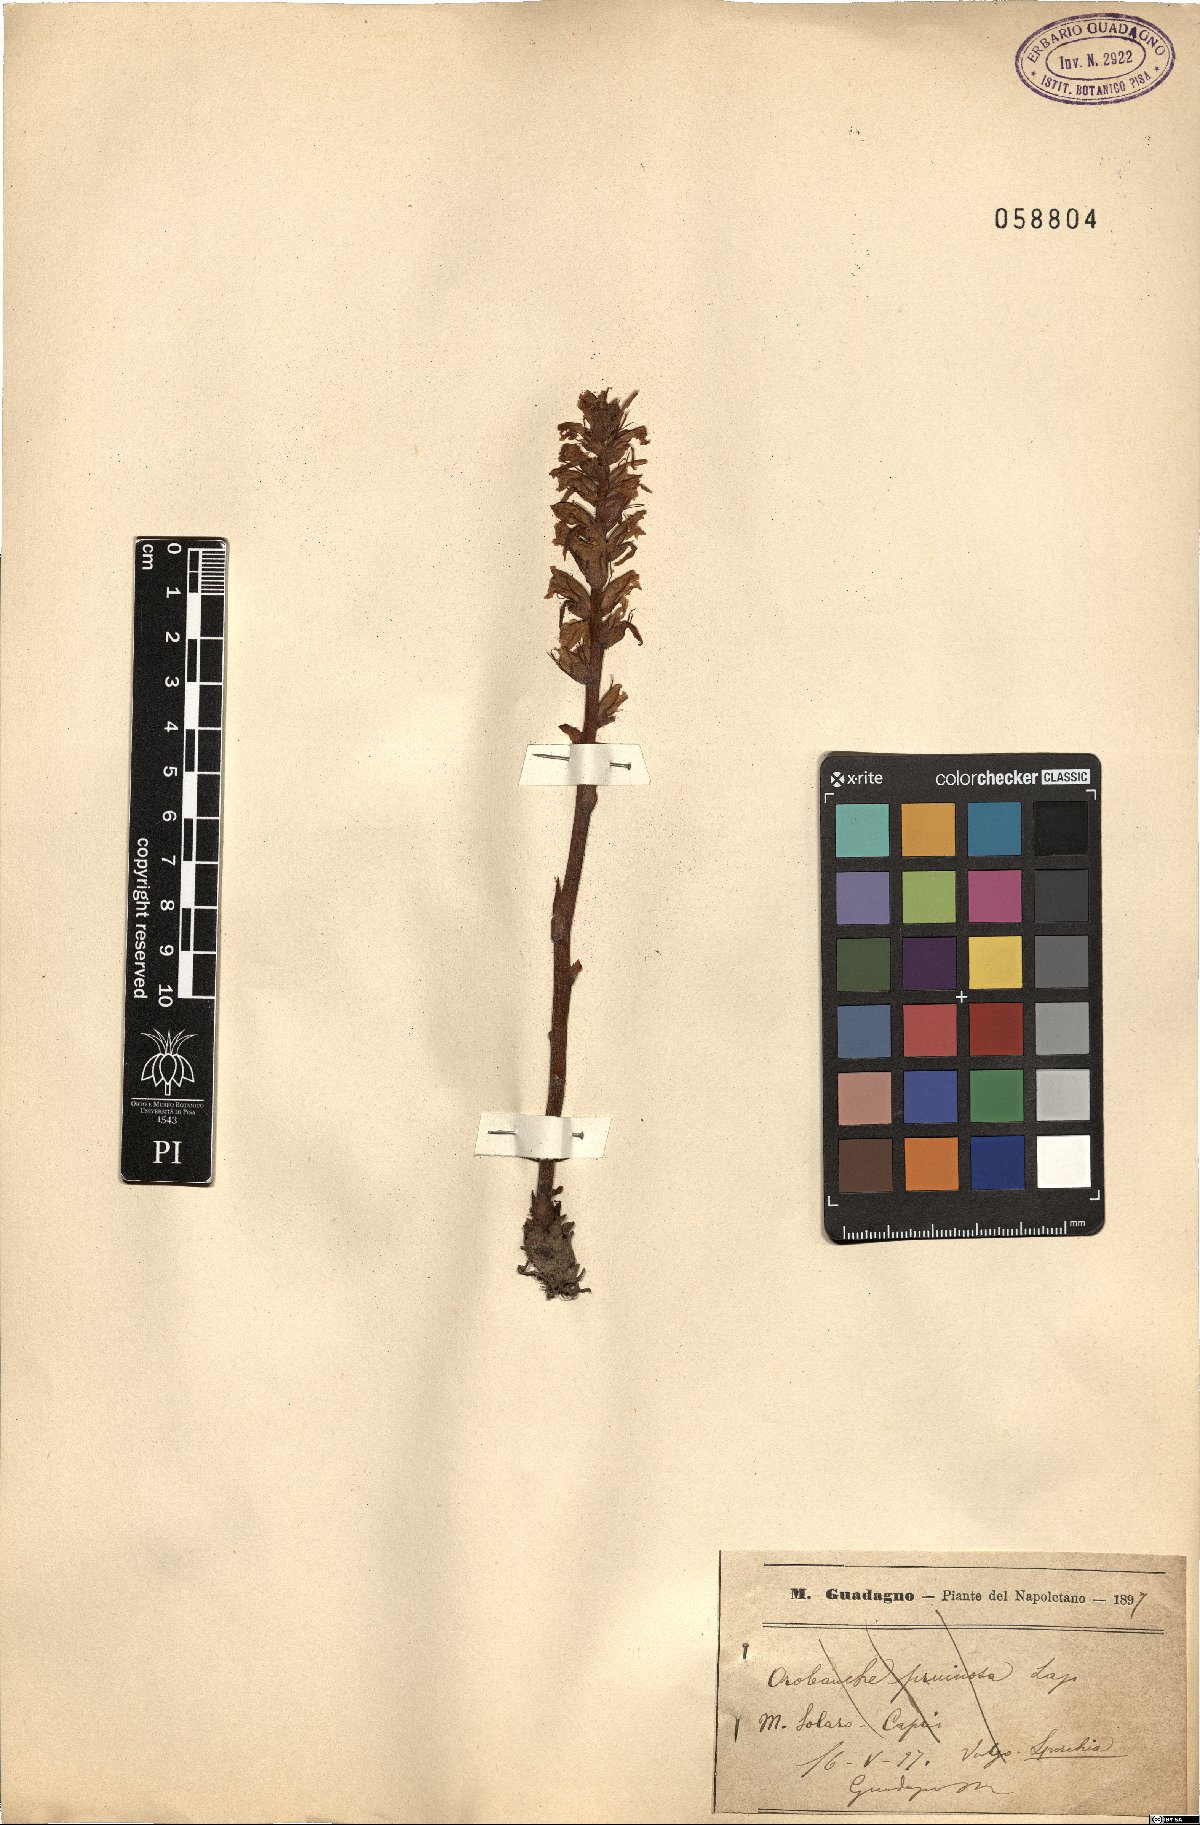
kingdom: Plantae
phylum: Tracheophyta
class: Magnoliopsida
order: Lamiales
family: Orobanchaceae
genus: Orobanche
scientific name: Orobanche crenata
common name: Bean broomrape
